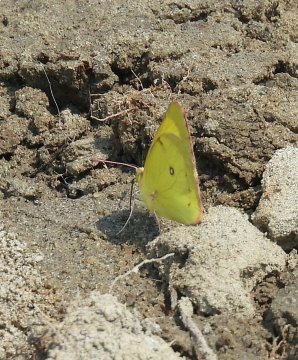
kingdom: Animalia
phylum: Arthropoda
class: Insecta
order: Lepidoptera
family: Pieridae
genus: Colias
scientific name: Colias interior
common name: Pink-edged Sulphur
